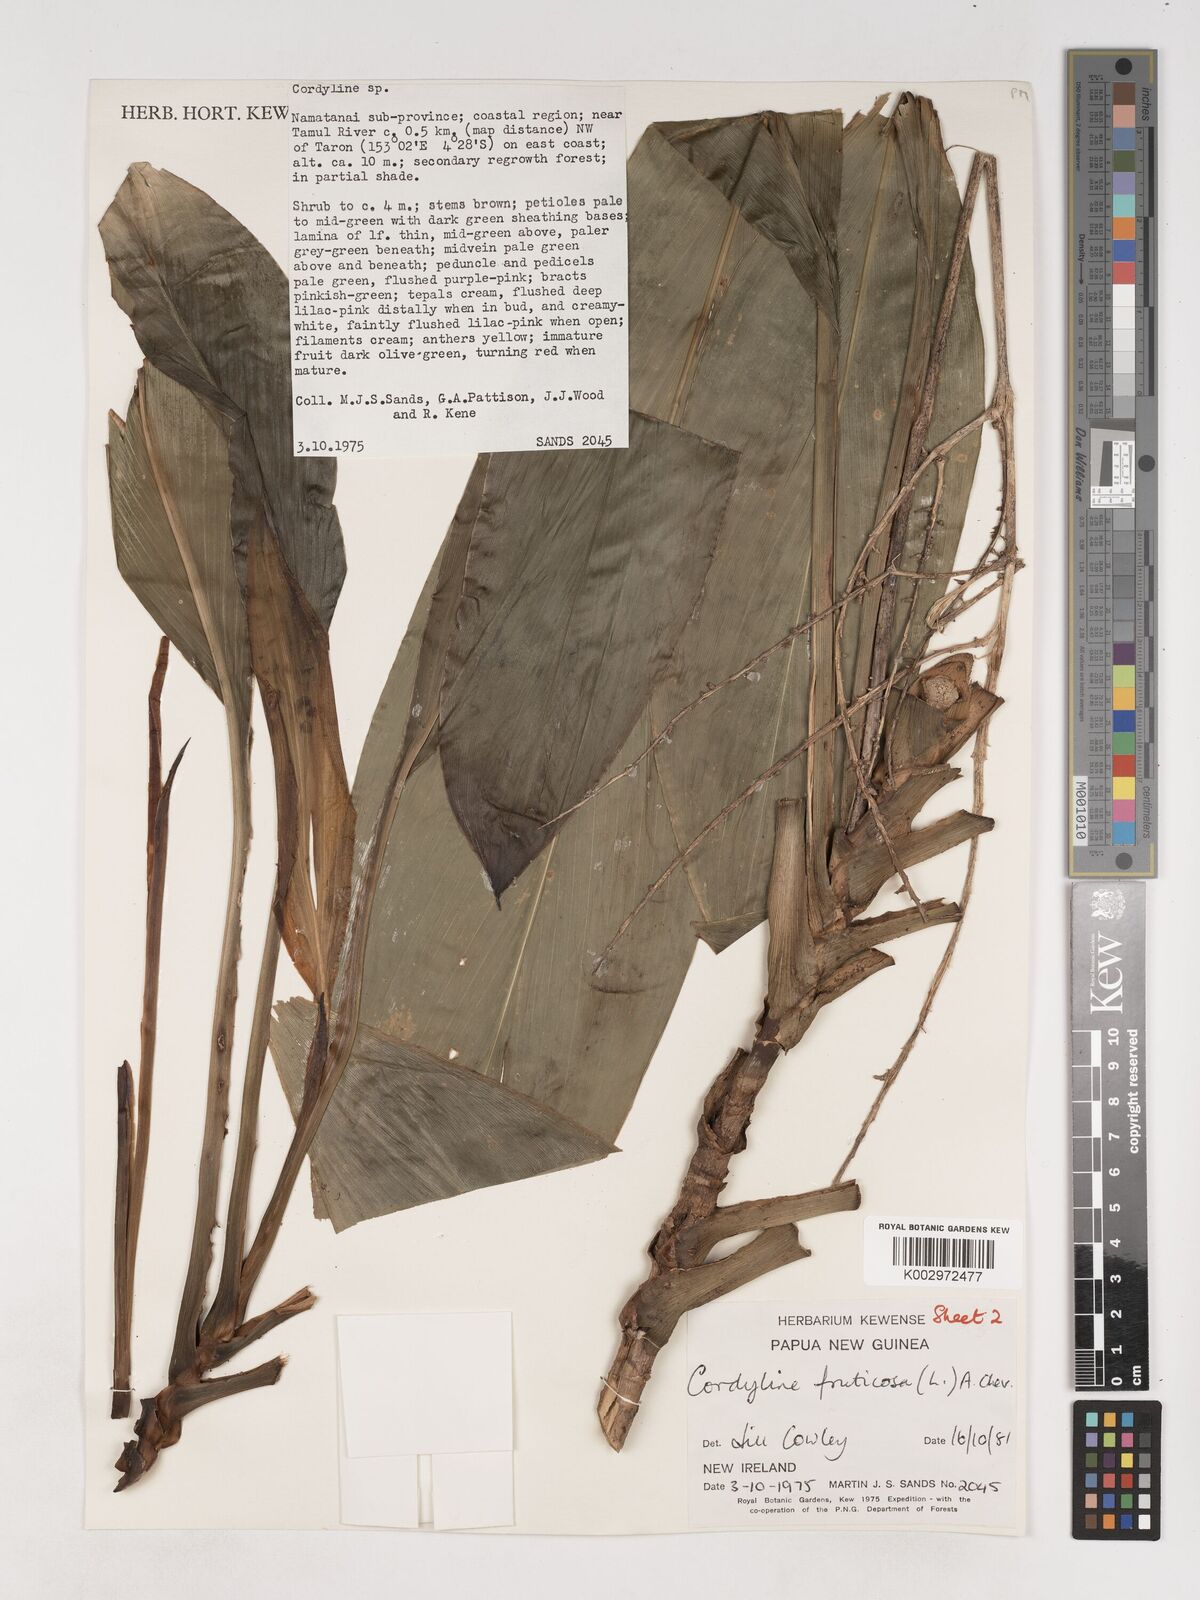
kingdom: Plantae
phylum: Tracheophyta
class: Liliopsida
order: Asparagales
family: Asparagaceae
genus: Cordyline
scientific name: Cordyline fruticosa
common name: Good-luck-plant
